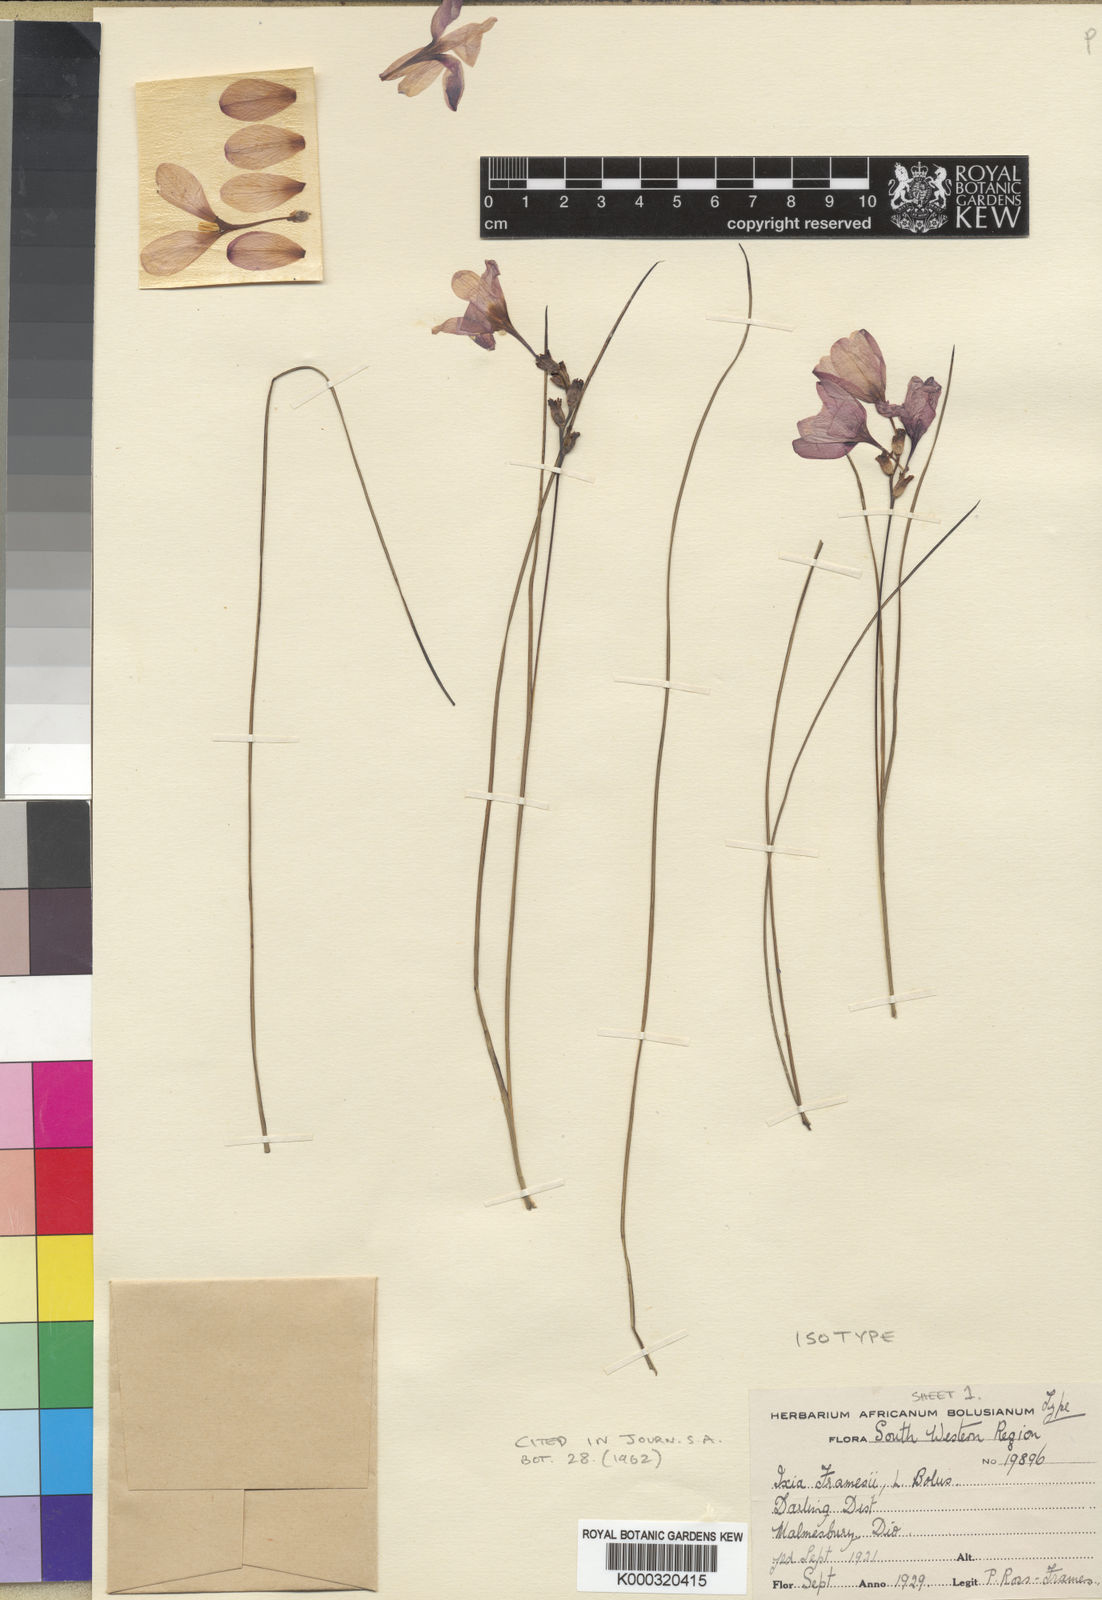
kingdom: Plantae
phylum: Tracheophyta
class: Liliopsida
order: Asparagales
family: Iridaceae
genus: Ixia
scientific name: Ixia tenuifolia
